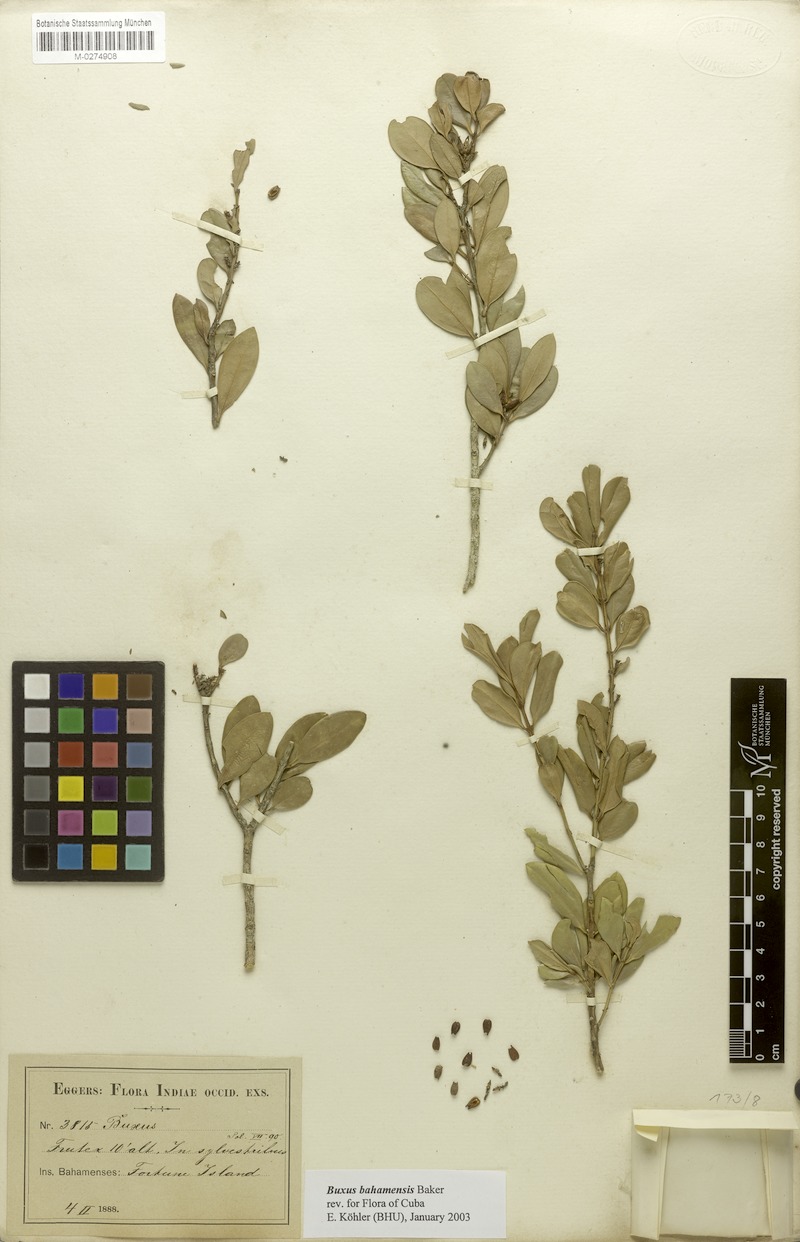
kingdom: Plantae
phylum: Tracheophyta
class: Magnoliopsida
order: Buxales
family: Buxaceae
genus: Buxus
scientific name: Buxus bahamensis
